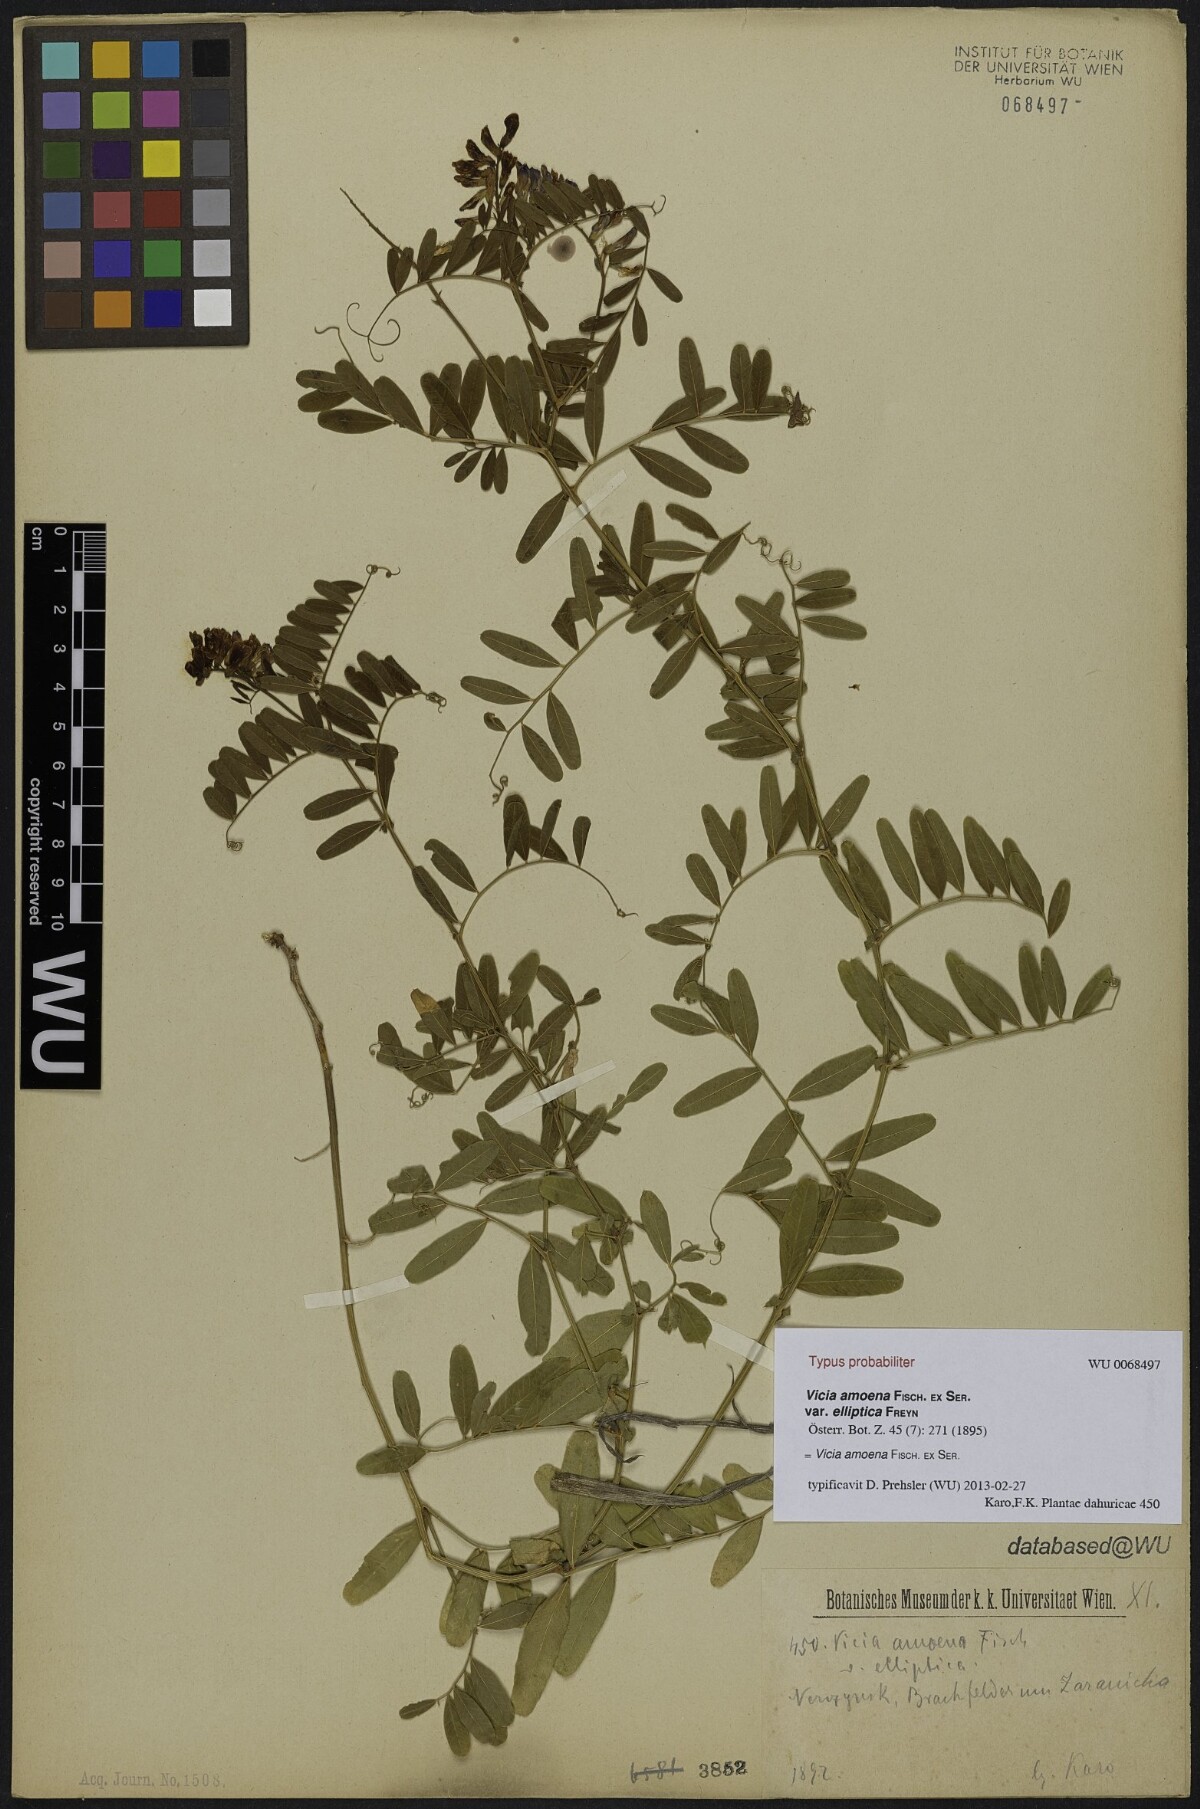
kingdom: Plantae
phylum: Tracheophyta
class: Magnoliopsida
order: Fabales
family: Fabaceae
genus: Vicia
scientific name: Vicia amoena
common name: Cheder ebs
